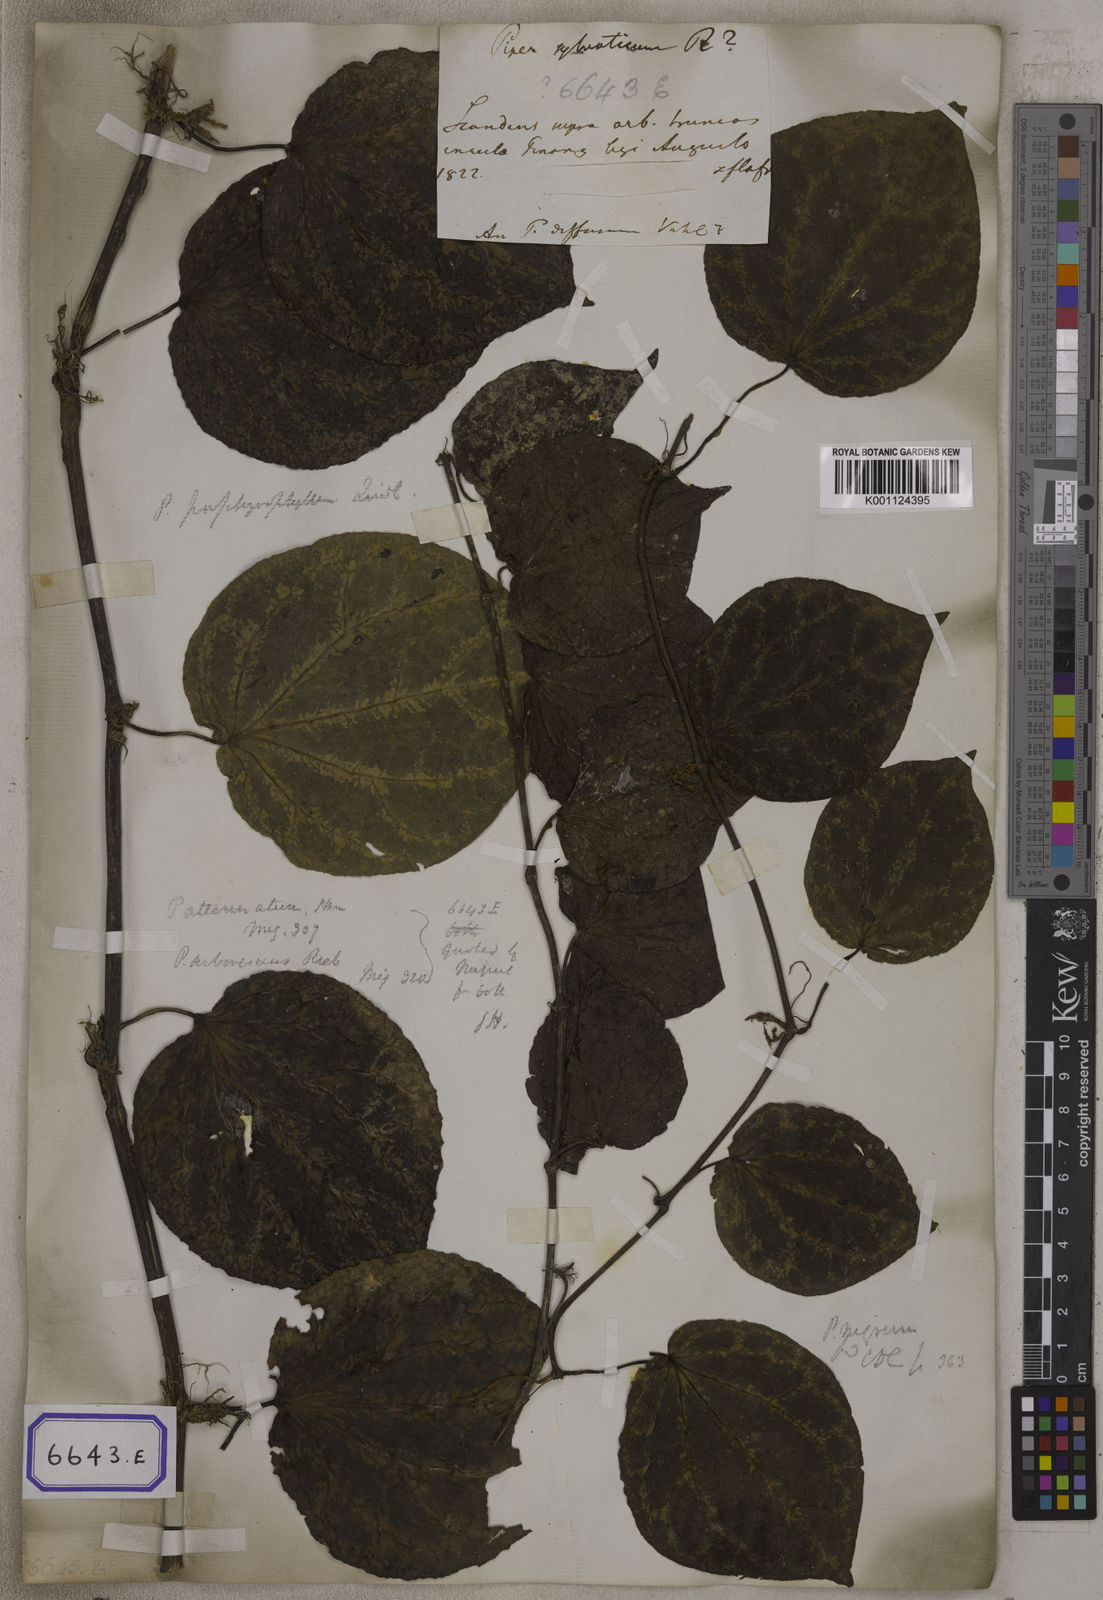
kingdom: Plantae
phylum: Tracheophyta
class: Magnoliopsida
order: Piperales
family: Piperaceae
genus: Piper
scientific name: Piper
